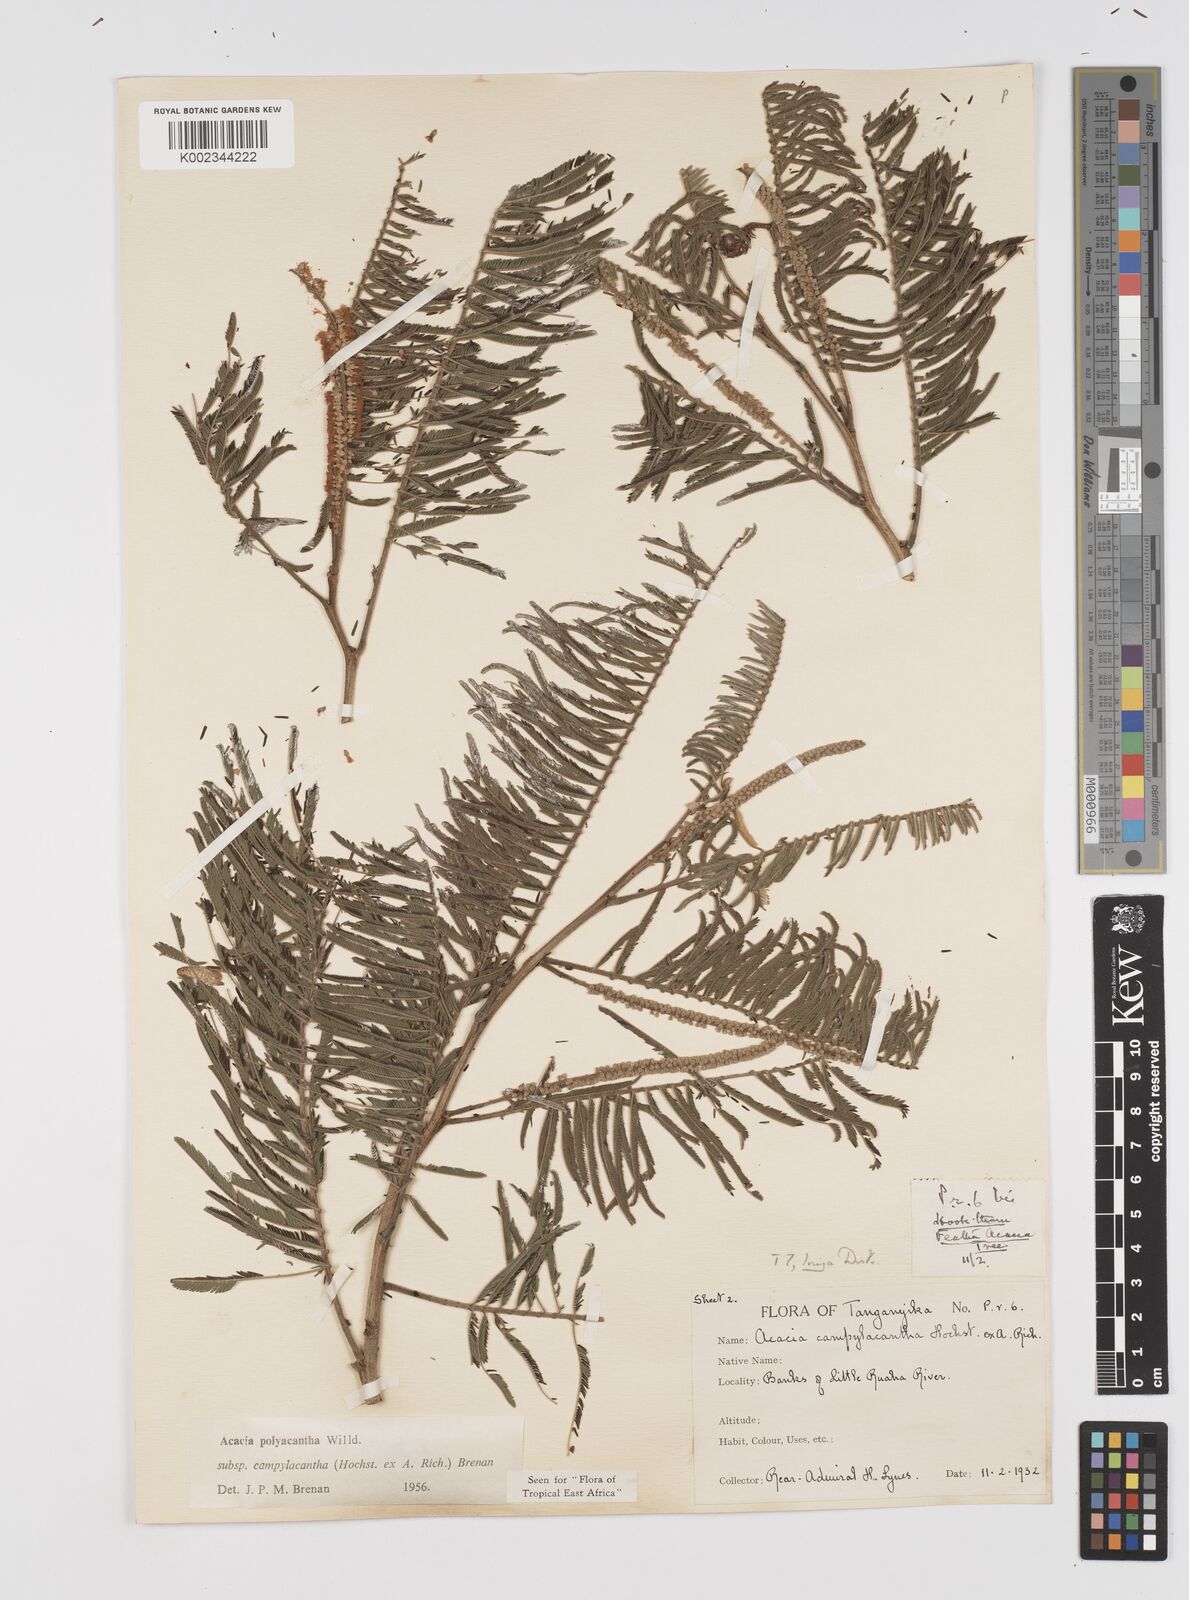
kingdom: Plantae
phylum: Tracheophyta
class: Magnoliopsida
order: Fabales
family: Fabaceae
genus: Senegalia
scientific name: Senegalia polyacantha
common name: Whitethorn
